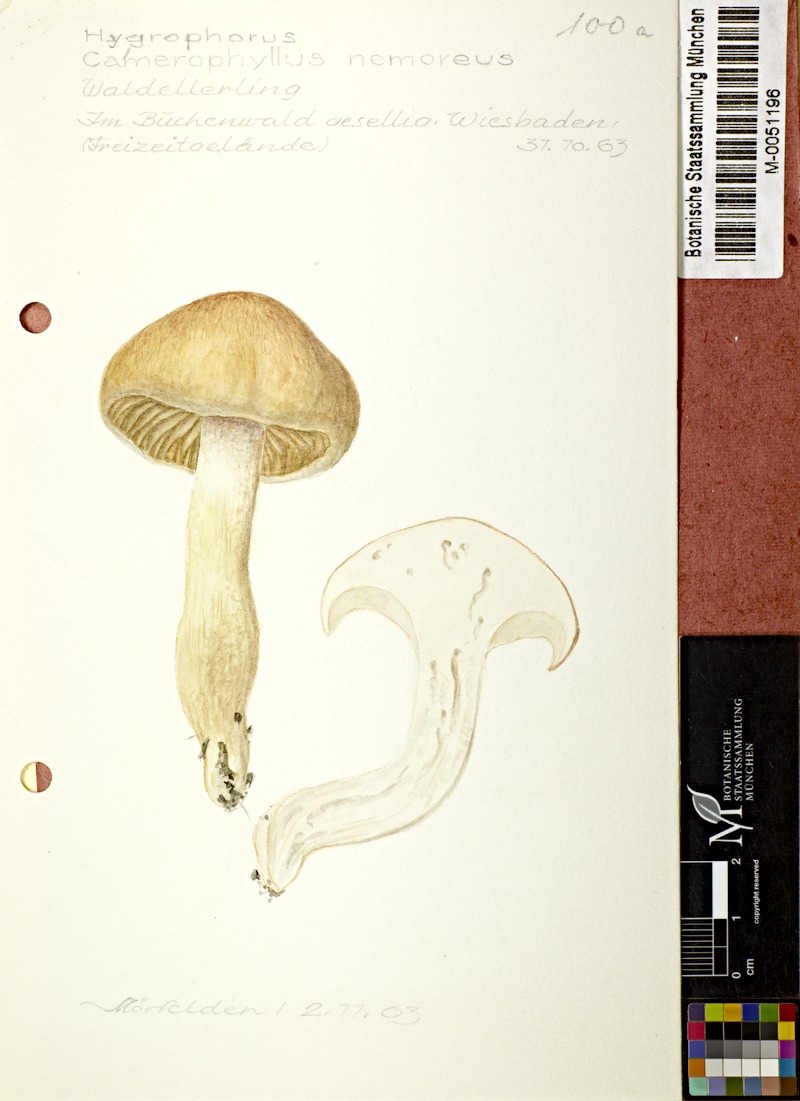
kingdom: Fungi
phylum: Basidiomycota
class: Agaricomycetes
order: Agaricales
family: Hygrophoraceae
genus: Hygrophorus
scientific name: Hygrophorus nemoreus
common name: Oak woodwax
